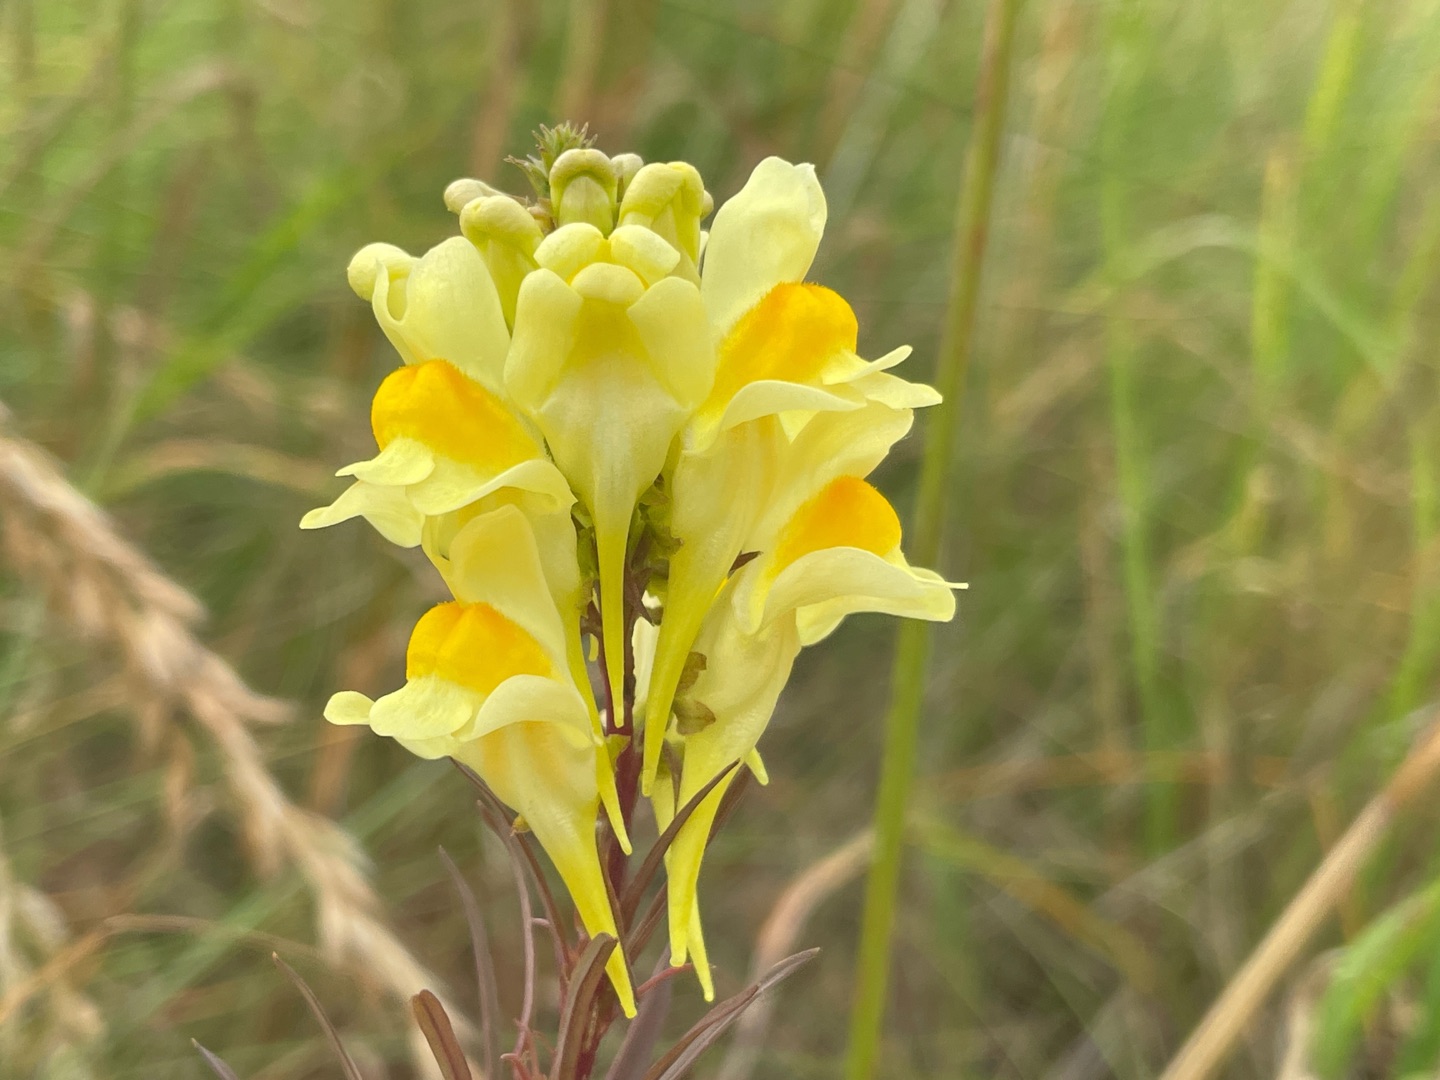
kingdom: Plantae
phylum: Tracheophyta
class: Magnoliopsida
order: Lamiales
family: Plantaginaceae
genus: Linaria
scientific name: Linaria vulgaris
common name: Almindelig torskemund
